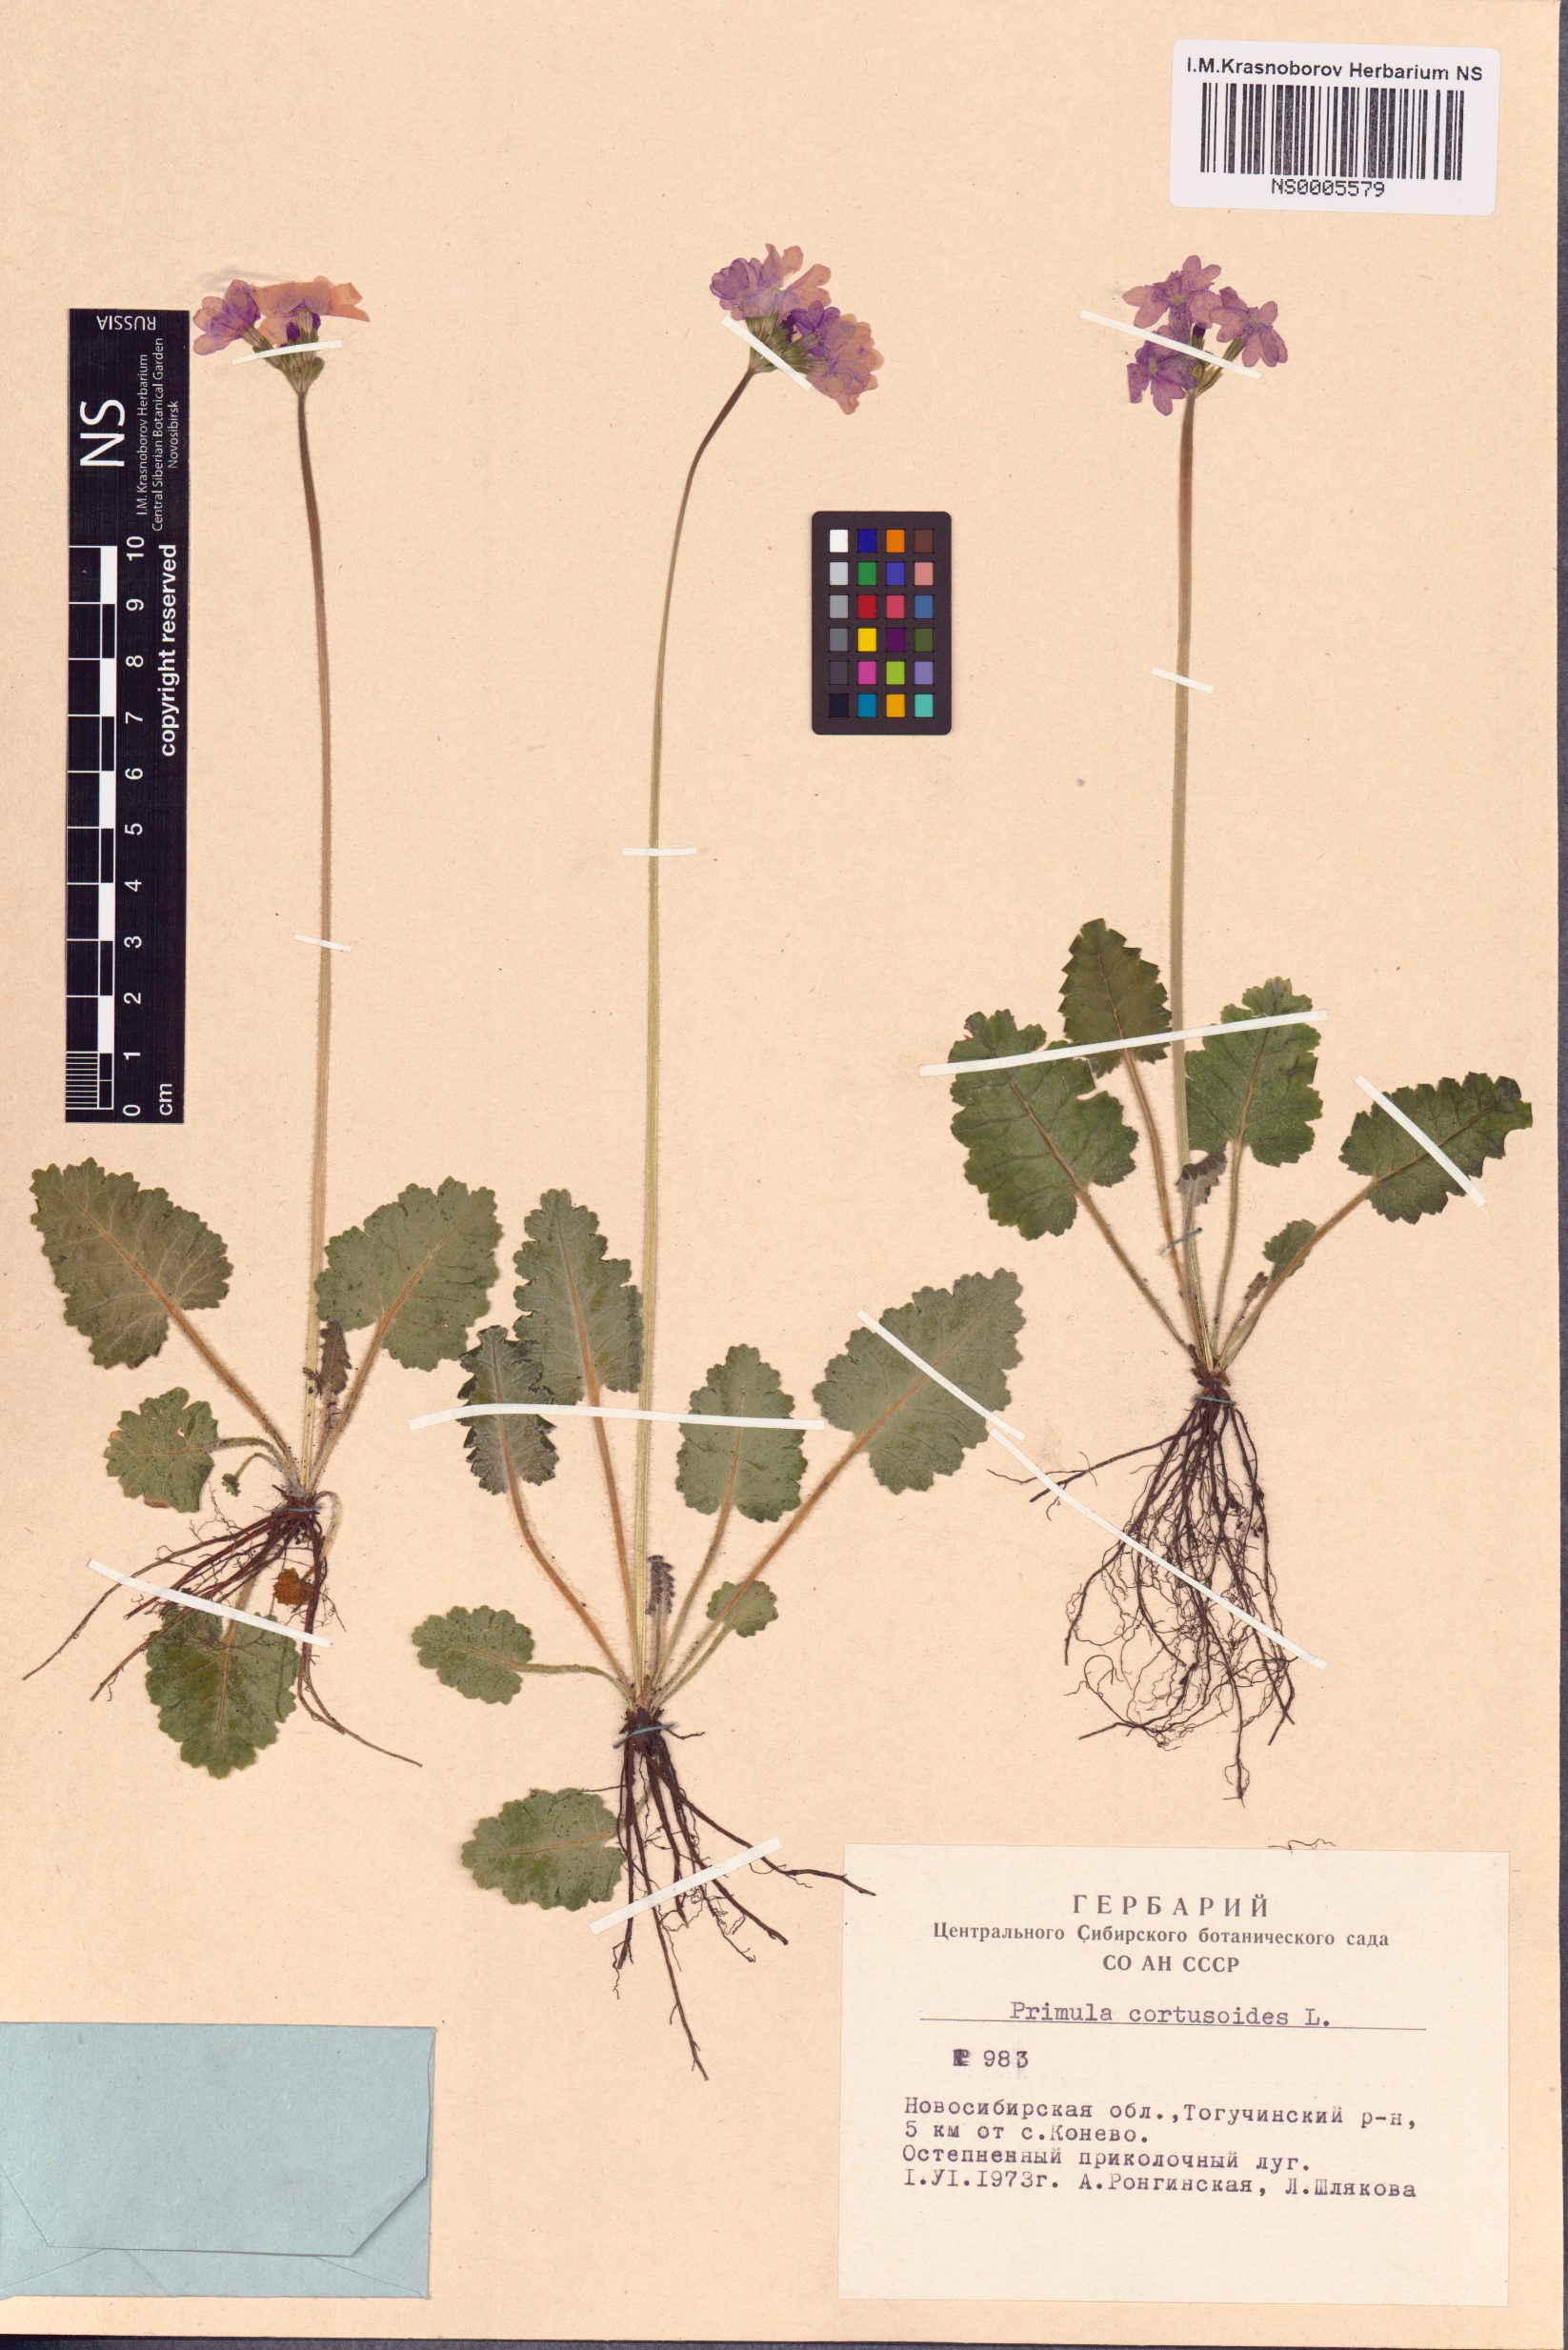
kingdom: Plantae
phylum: Tracheophyta
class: Magnoliopsida
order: Ericales
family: Primulaceae
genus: Primula
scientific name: Primula cortusoides
